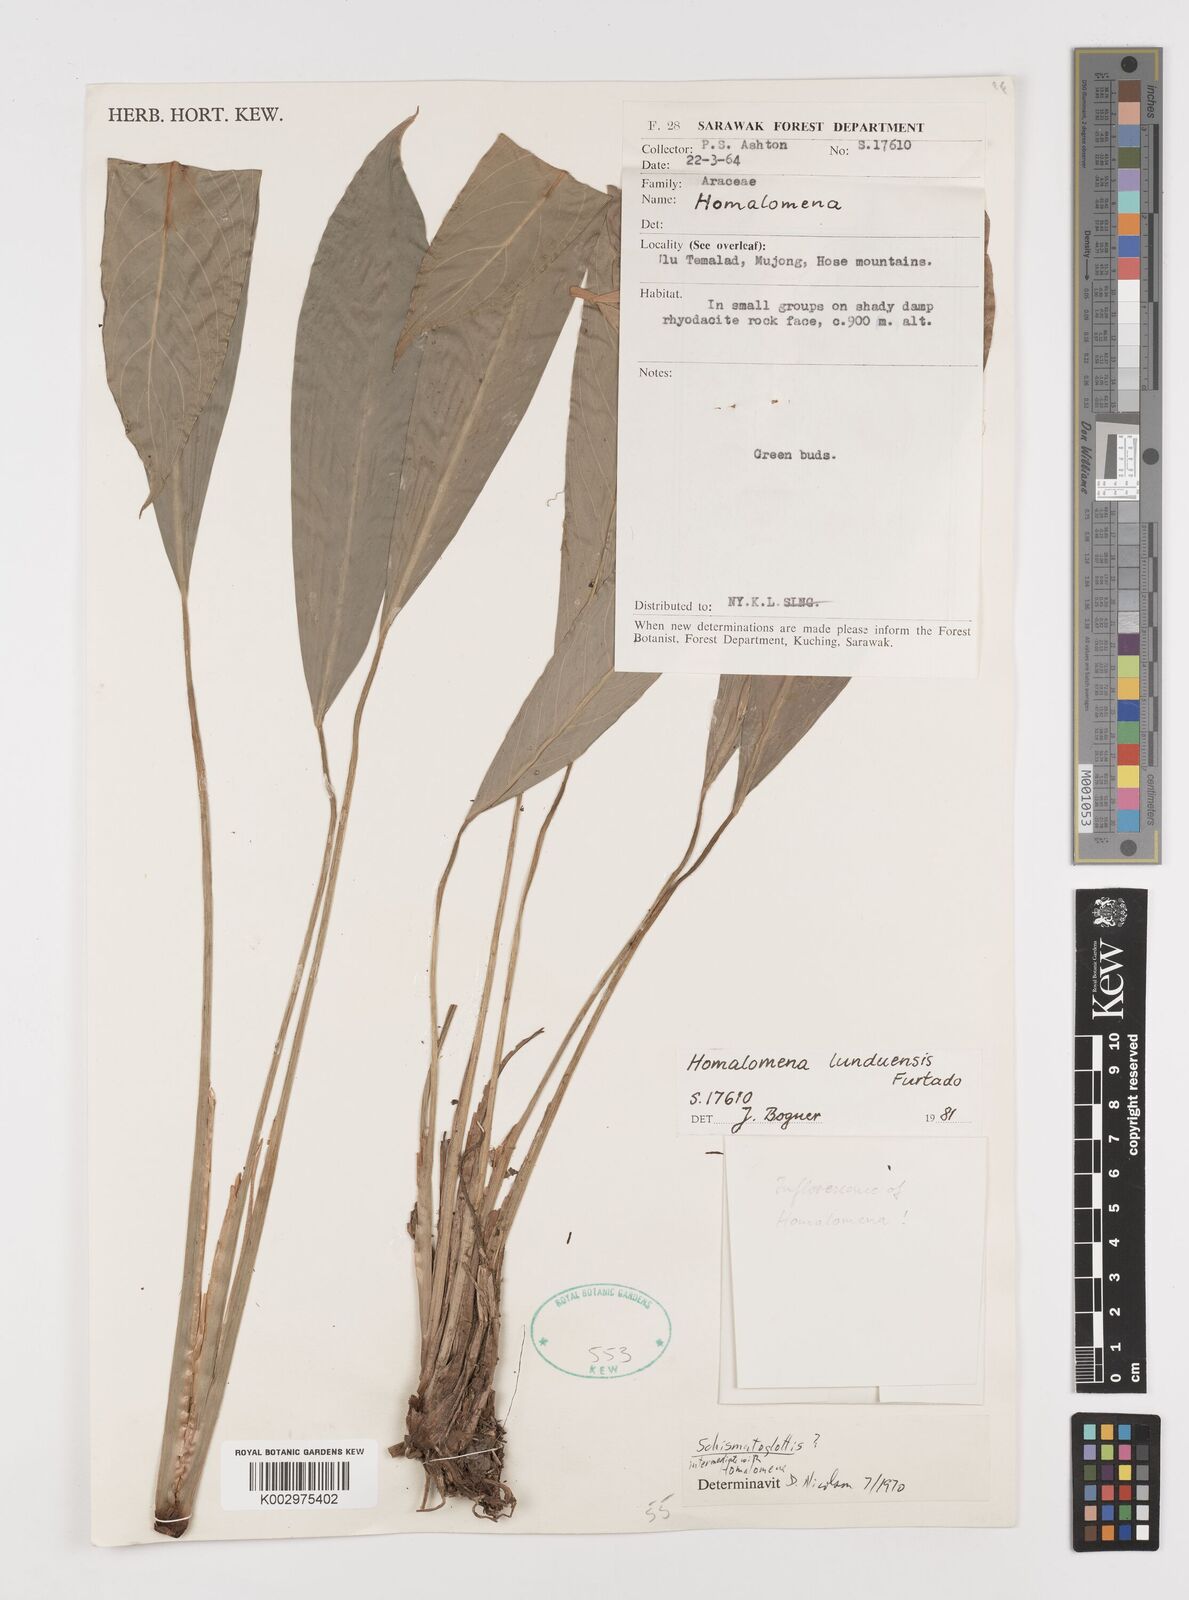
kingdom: Plantae
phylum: Tracheophyta
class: Liliopsida
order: Alismatales
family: Araceae
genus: Homalomena
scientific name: Homalomena havilandii
